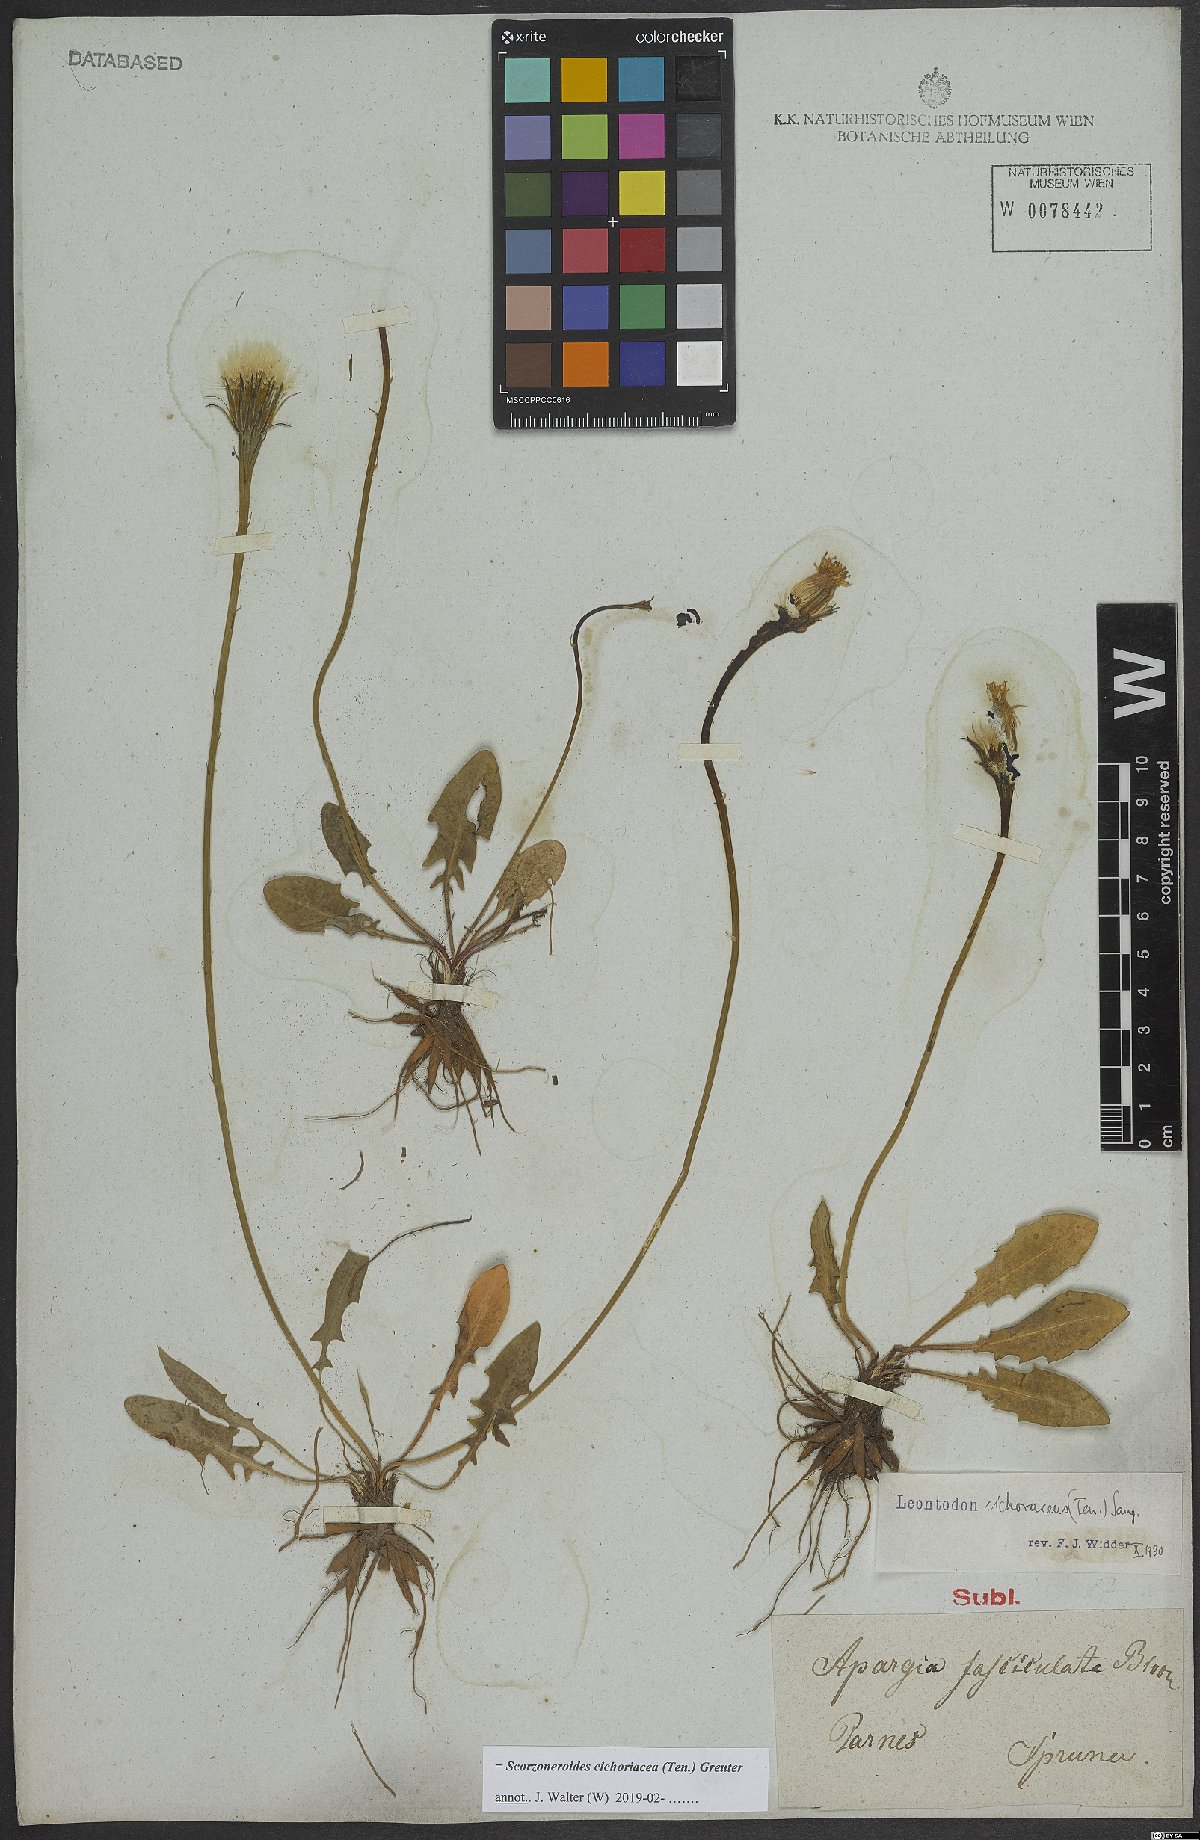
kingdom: Plantae
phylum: Tracheophyta
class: Magnoliopsida
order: Asterales
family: Asteraceae
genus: Scorzoneroides
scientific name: Scorzoneroides cichoriacea
